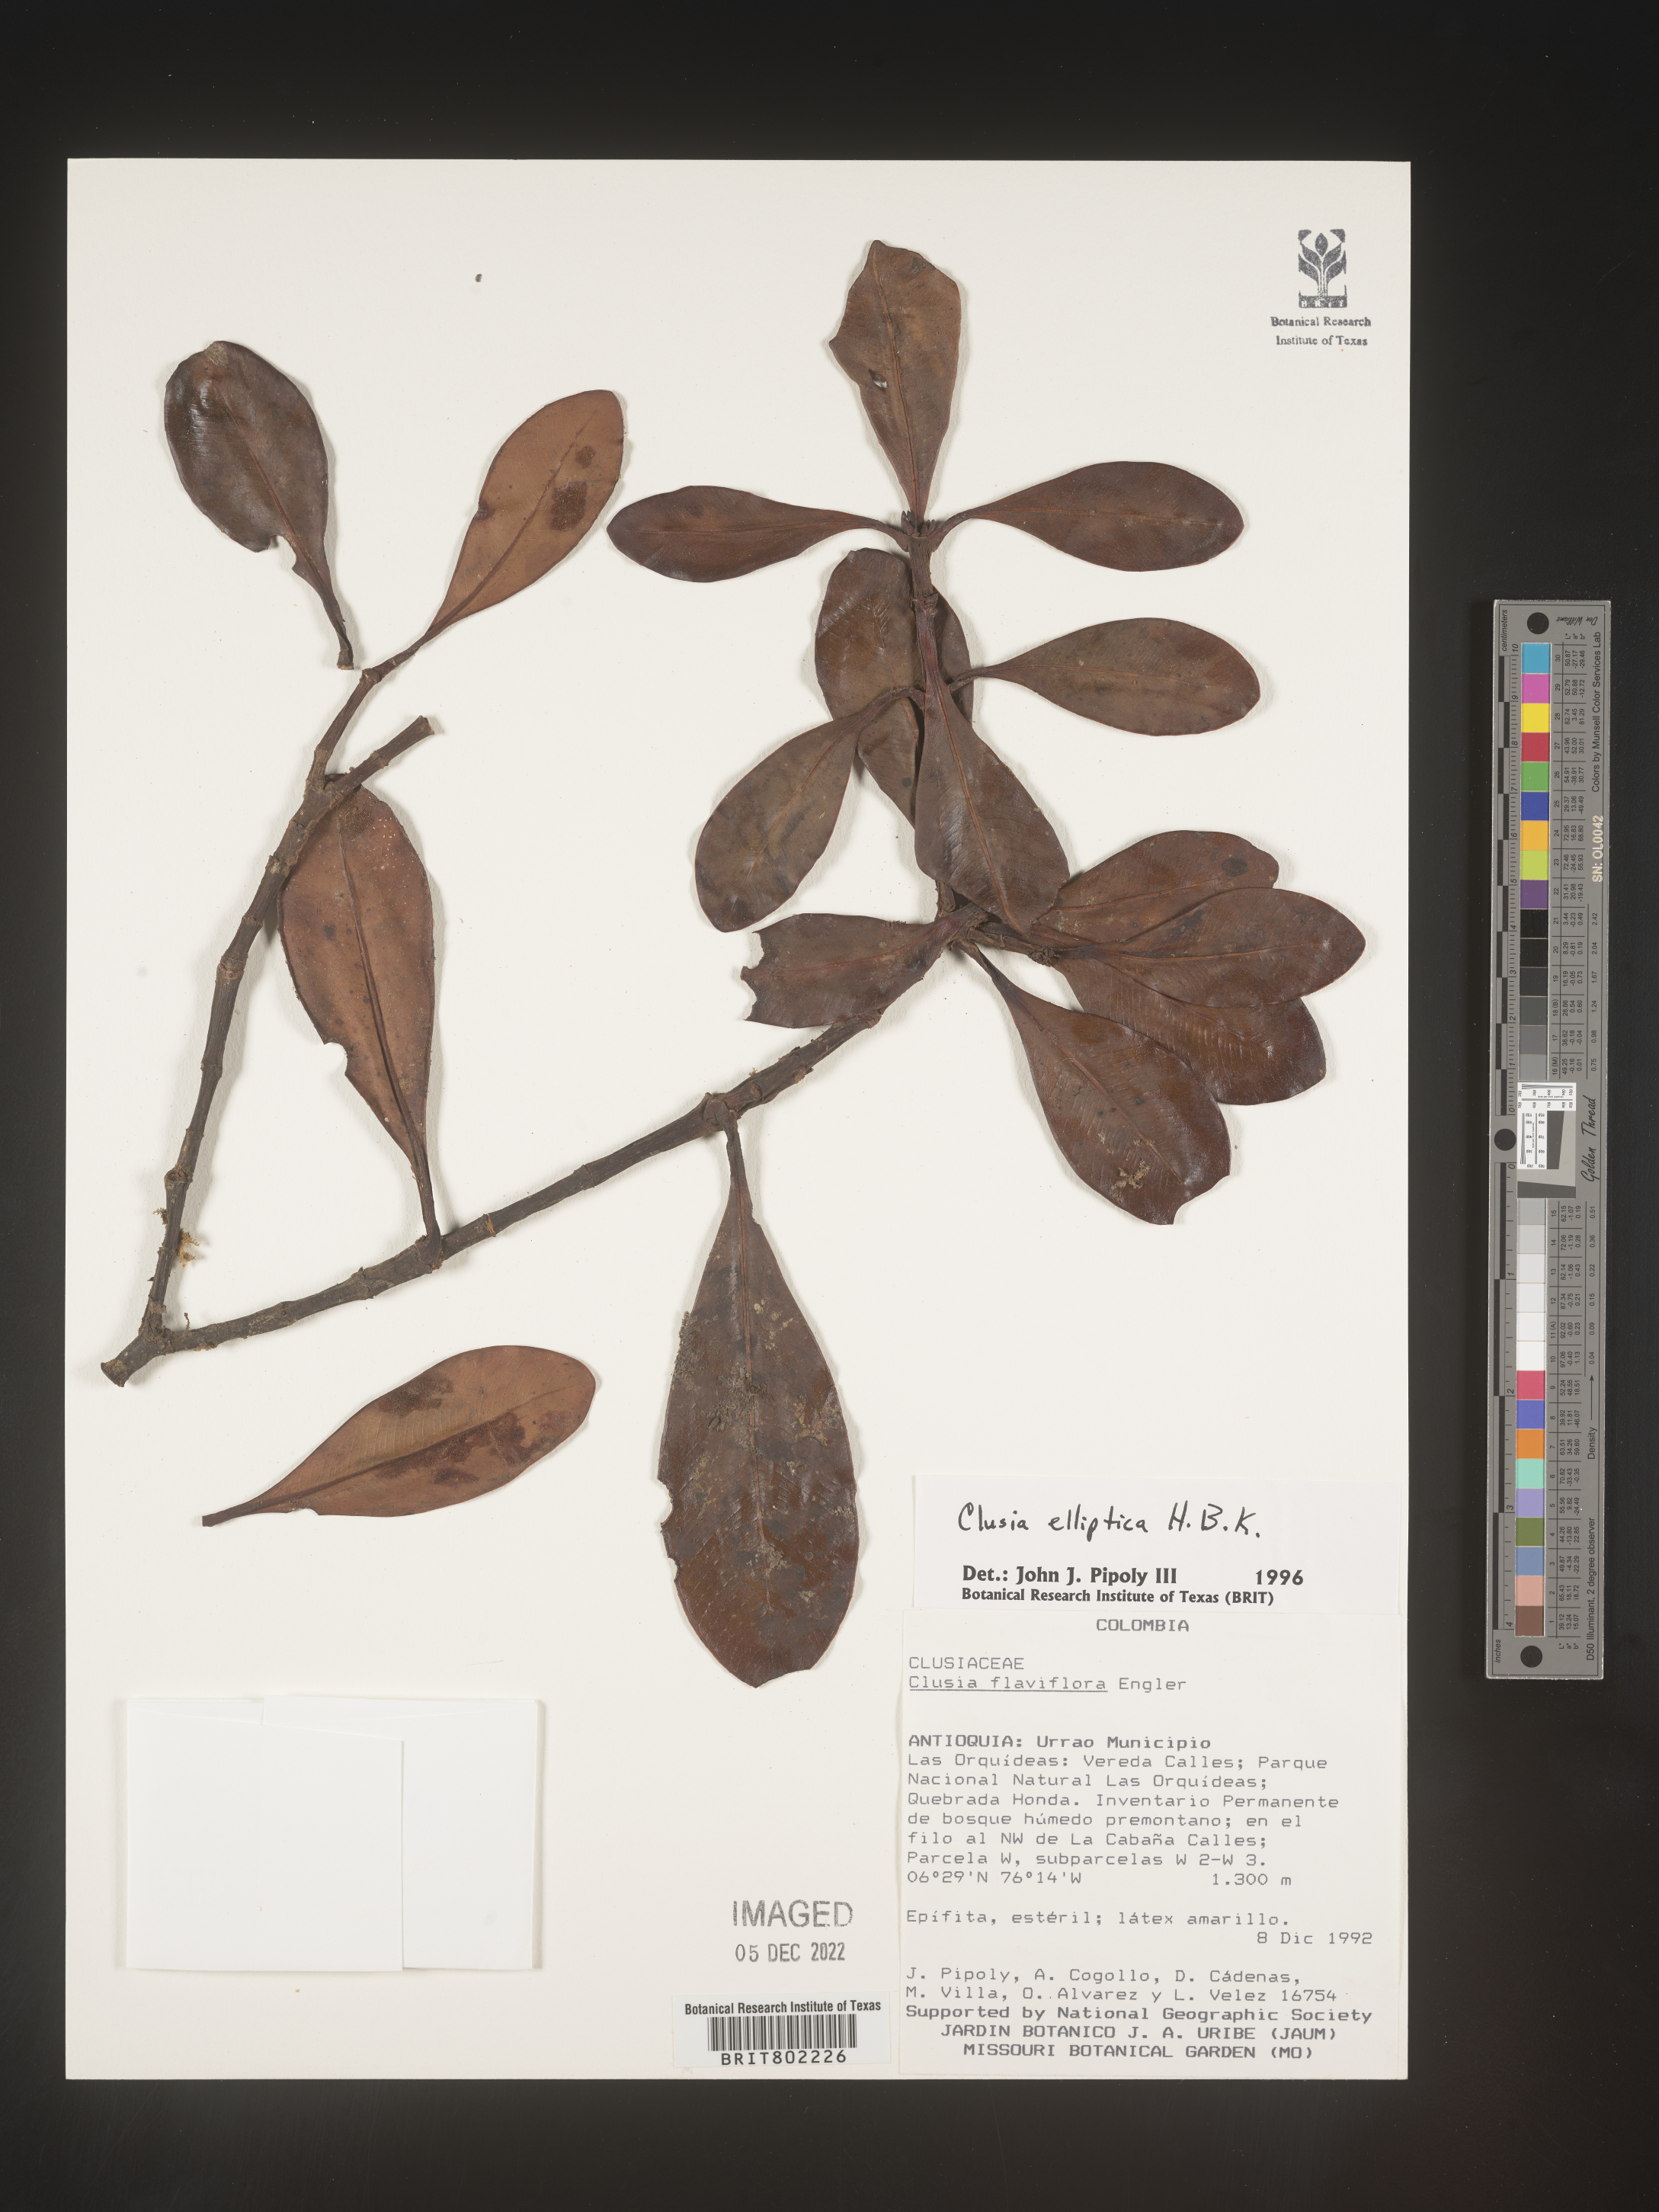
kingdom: Plantae
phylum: Tracheophyta
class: Magnoliopsida
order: Malpighiales
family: Clusiaceae
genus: Clusia
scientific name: Clusia elliptica
